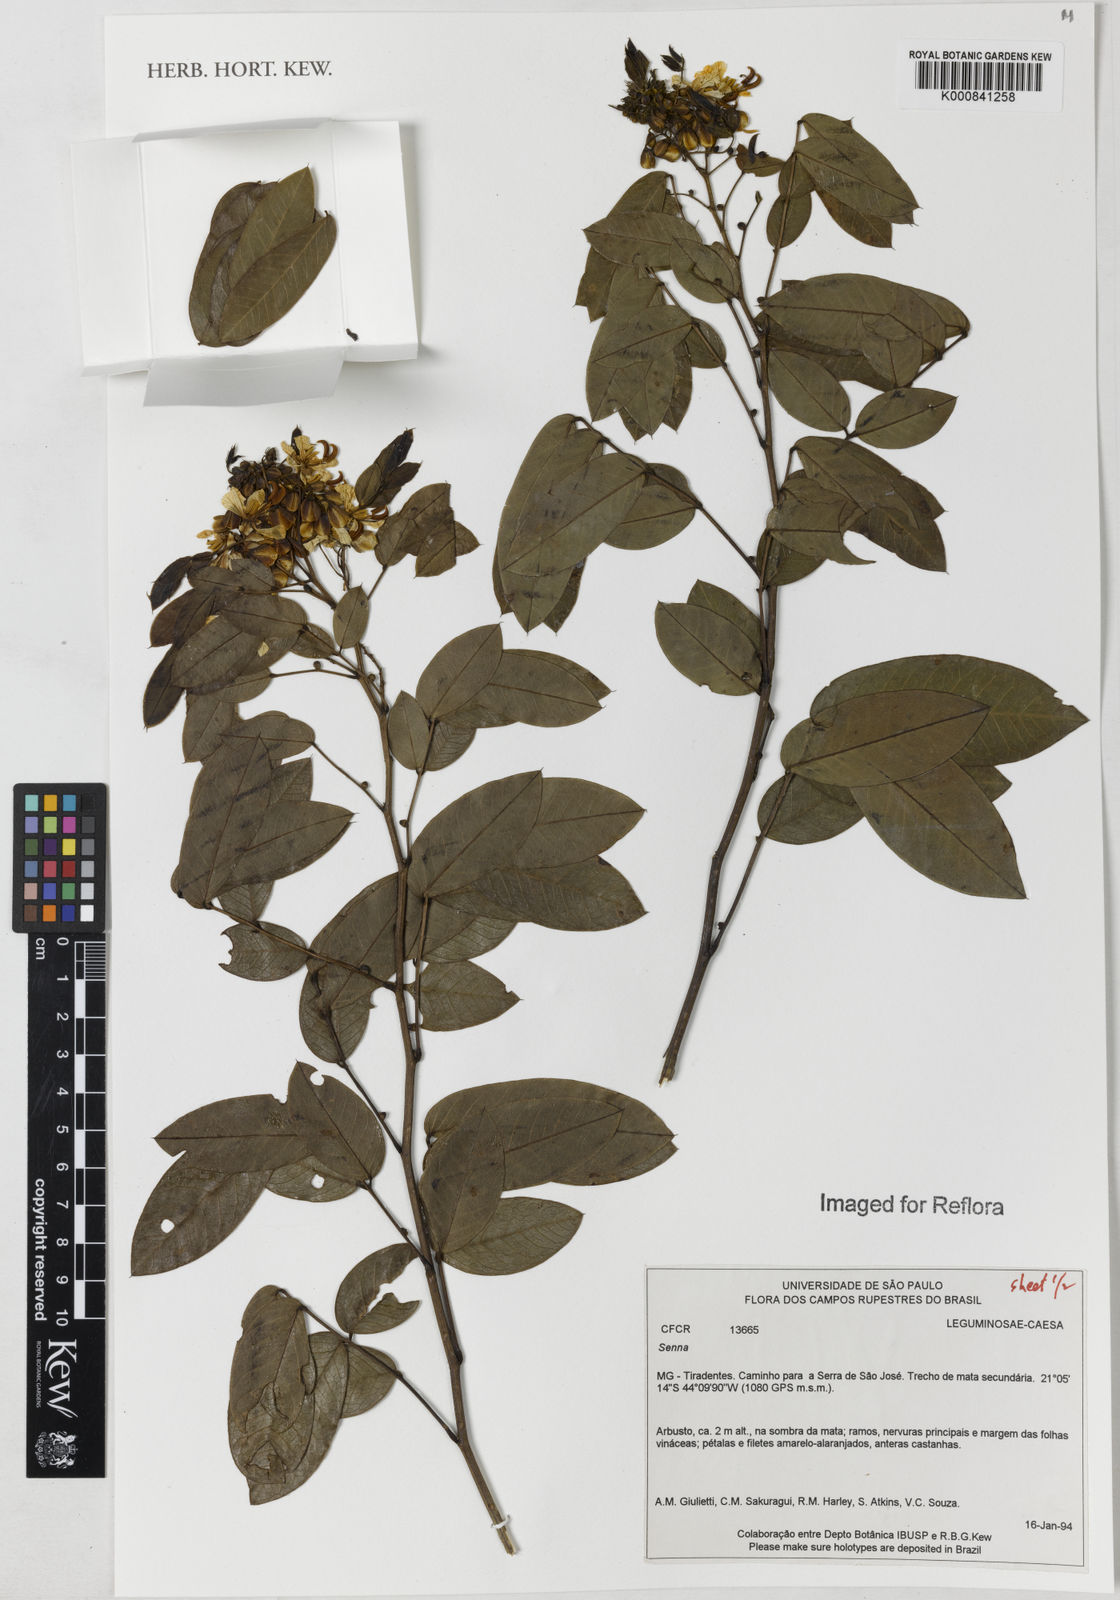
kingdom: Plantae
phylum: Tracheophyta
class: Magnoliopsida
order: Fabales
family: Fabaceae
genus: Senna
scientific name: Senna
